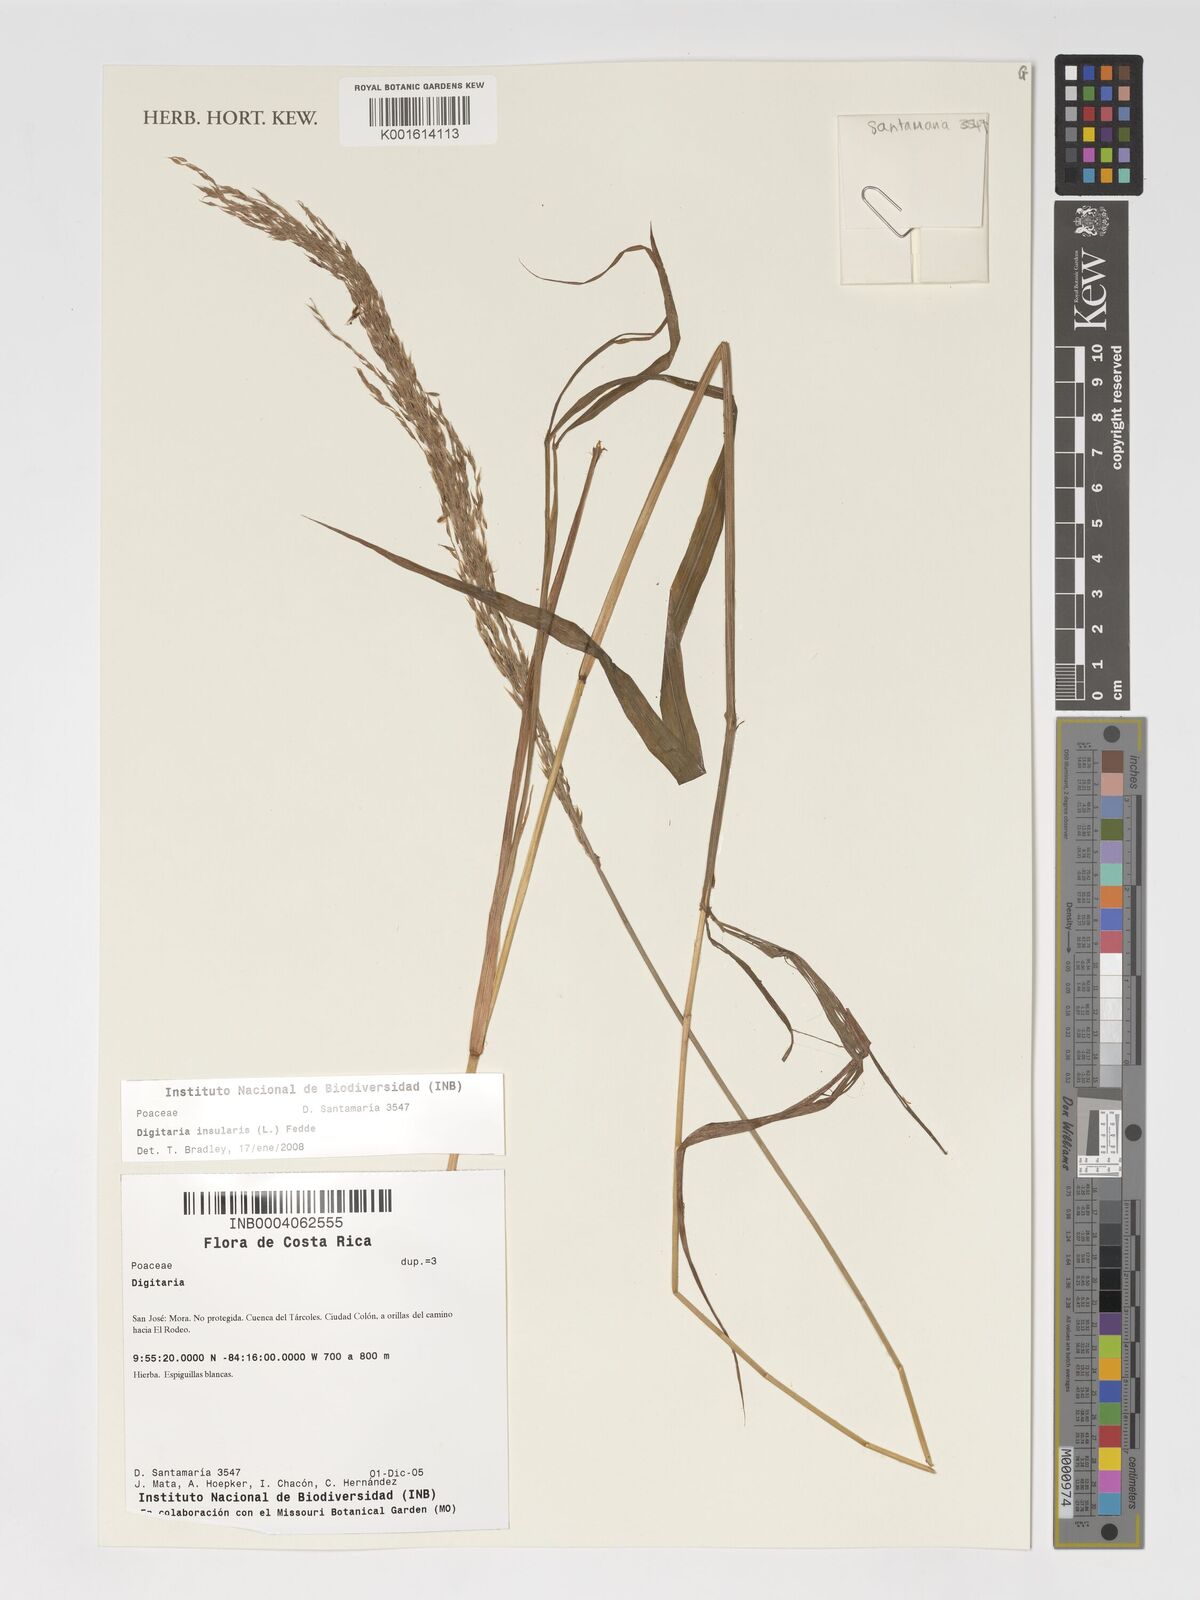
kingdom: Plantae
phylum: Tracheophyta
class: Liliopsida
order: Poales
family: Poaceae
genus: Digitaria
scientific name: Digitaria insularis
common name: Sourgrass
